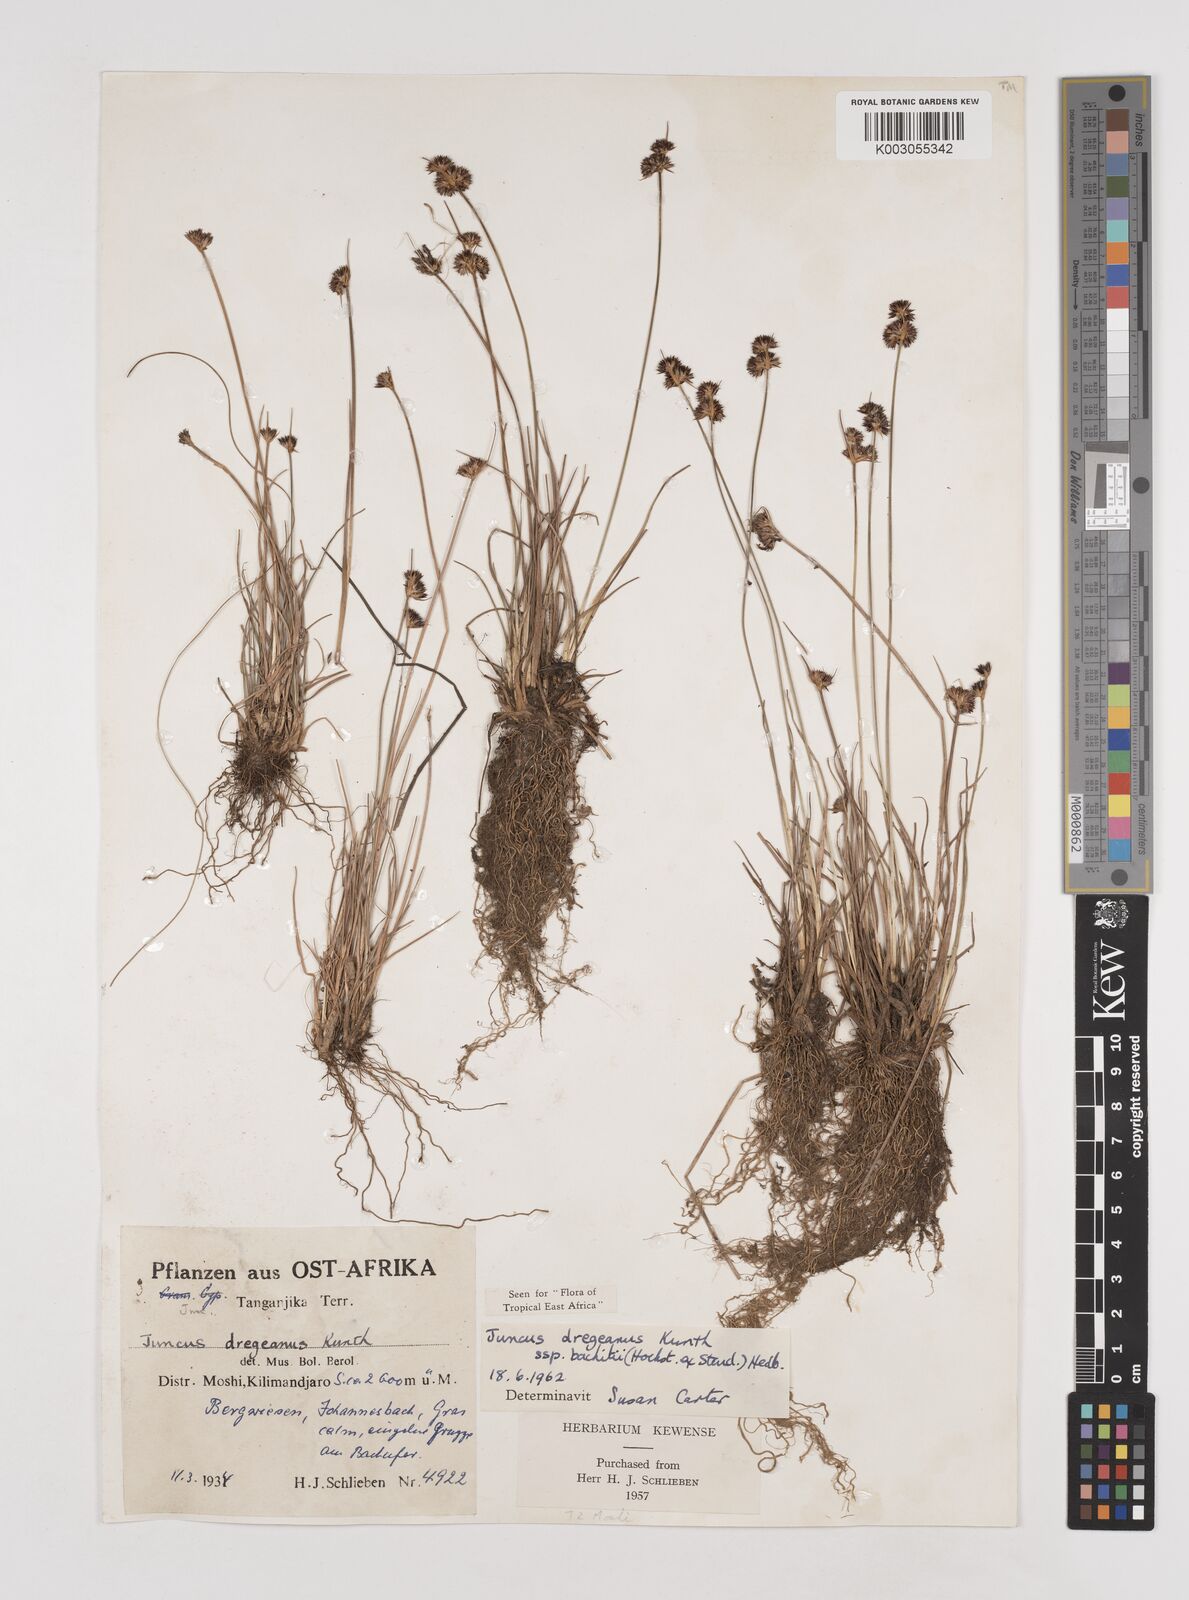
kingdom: Plantae
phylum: Tracheophyta
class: Liliopsida
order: Poales
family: Juncaceae
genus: Juncus
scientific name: Juncus dregeanus
